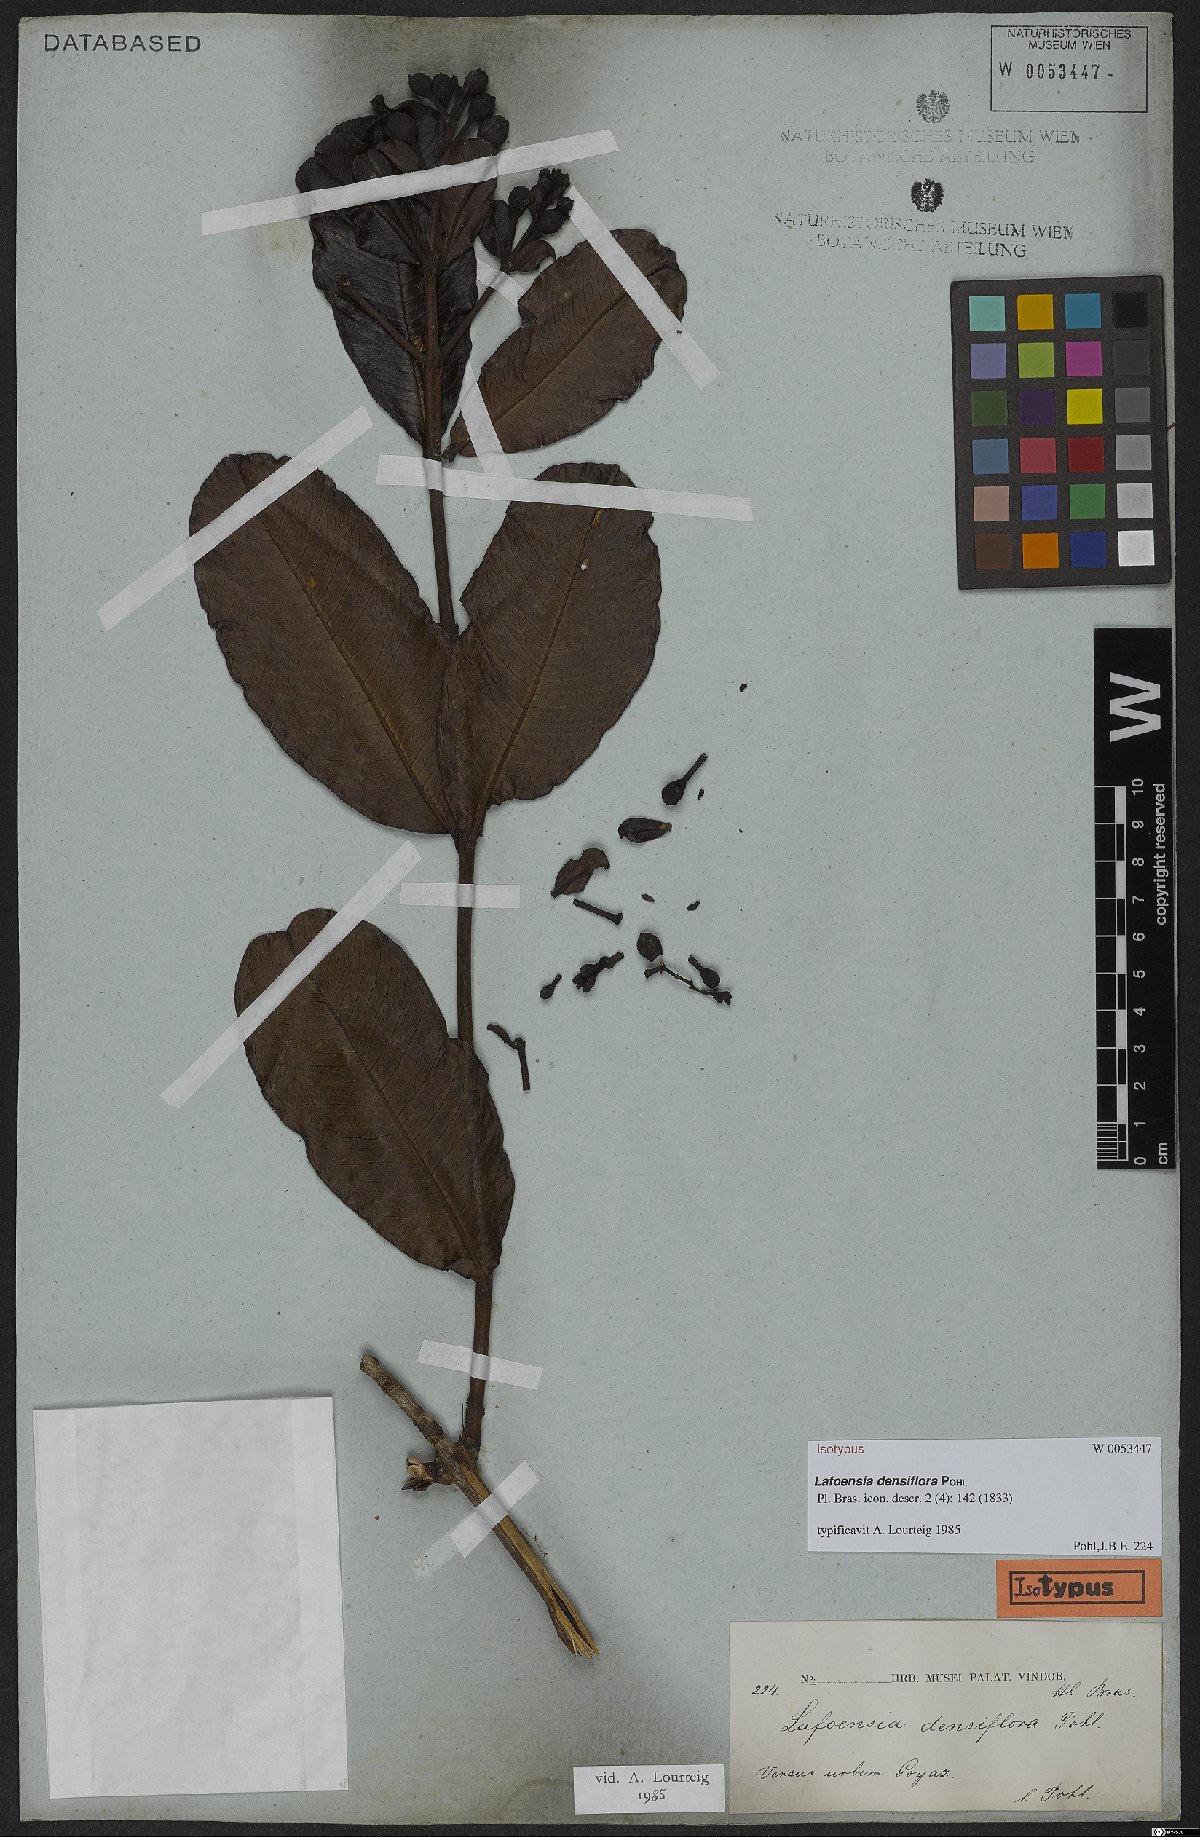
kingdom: Plantae
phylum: Tracheophyta
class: Magnoliopsida
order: Myrtales
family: Lythraceae
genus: Lafoensia
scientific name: Lafoensia vandelliana
